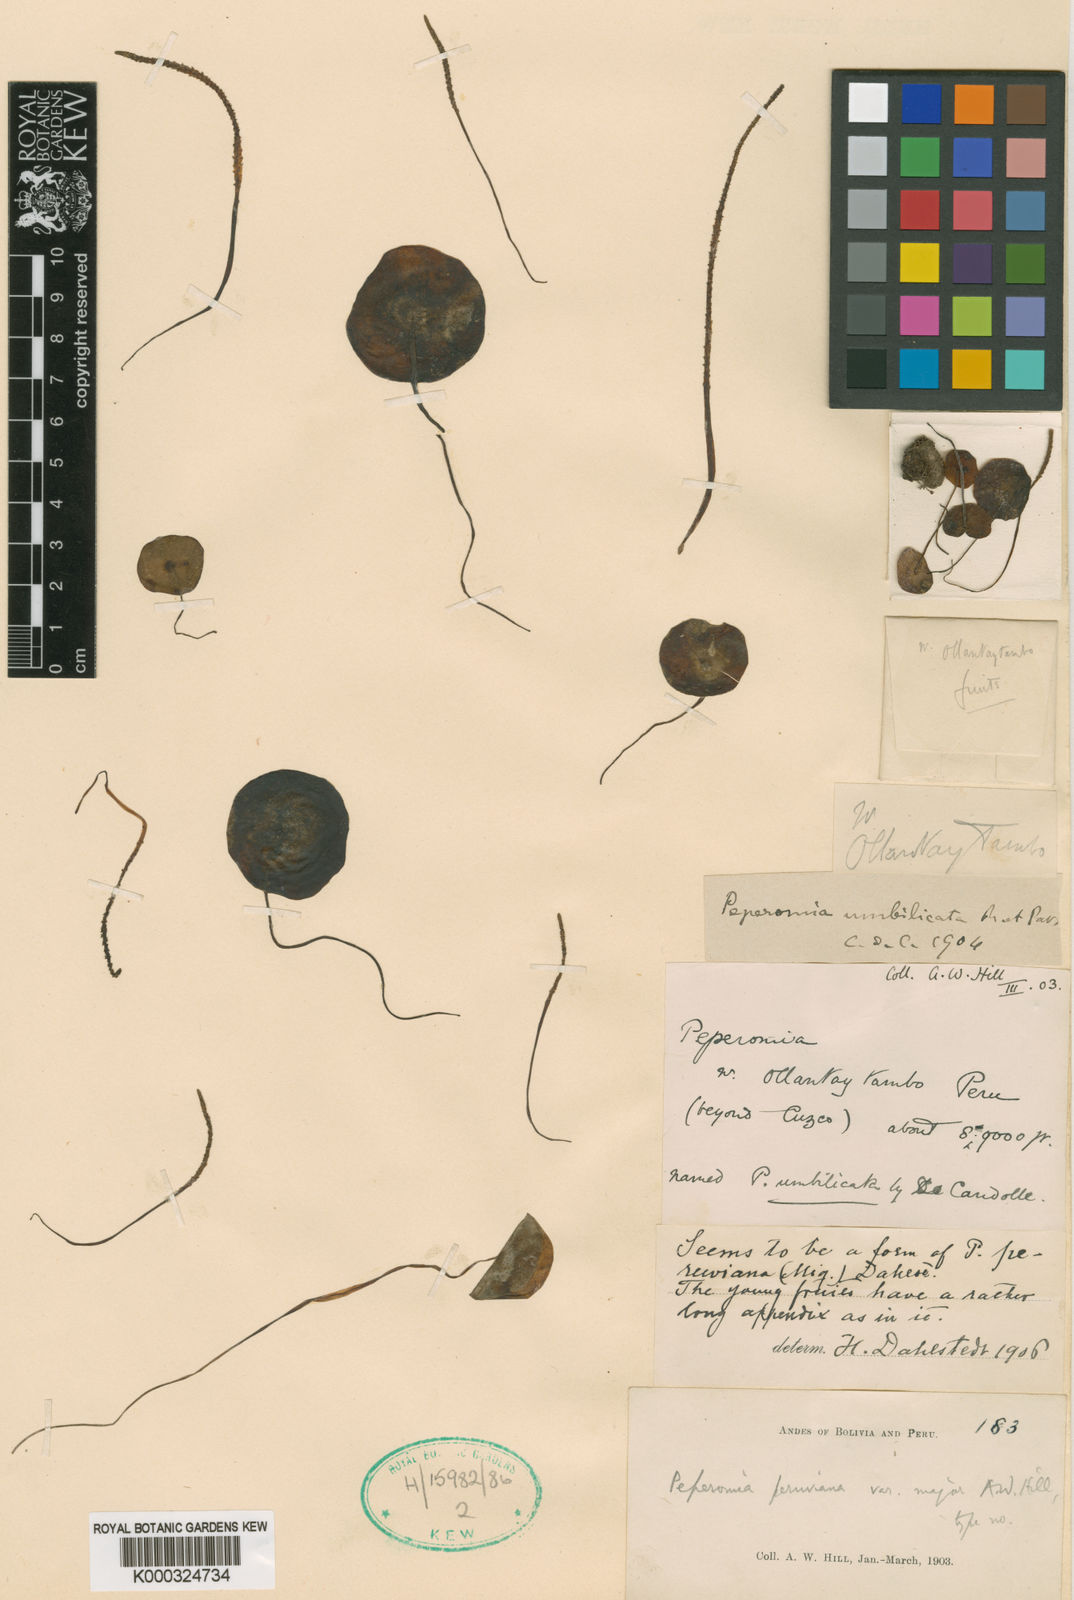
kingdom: Plantae
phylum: Tracheophyta
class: Magnoliopsida
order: Piperales
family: Piperaceae
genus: Peperomia
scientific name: Peperomia peruviana
